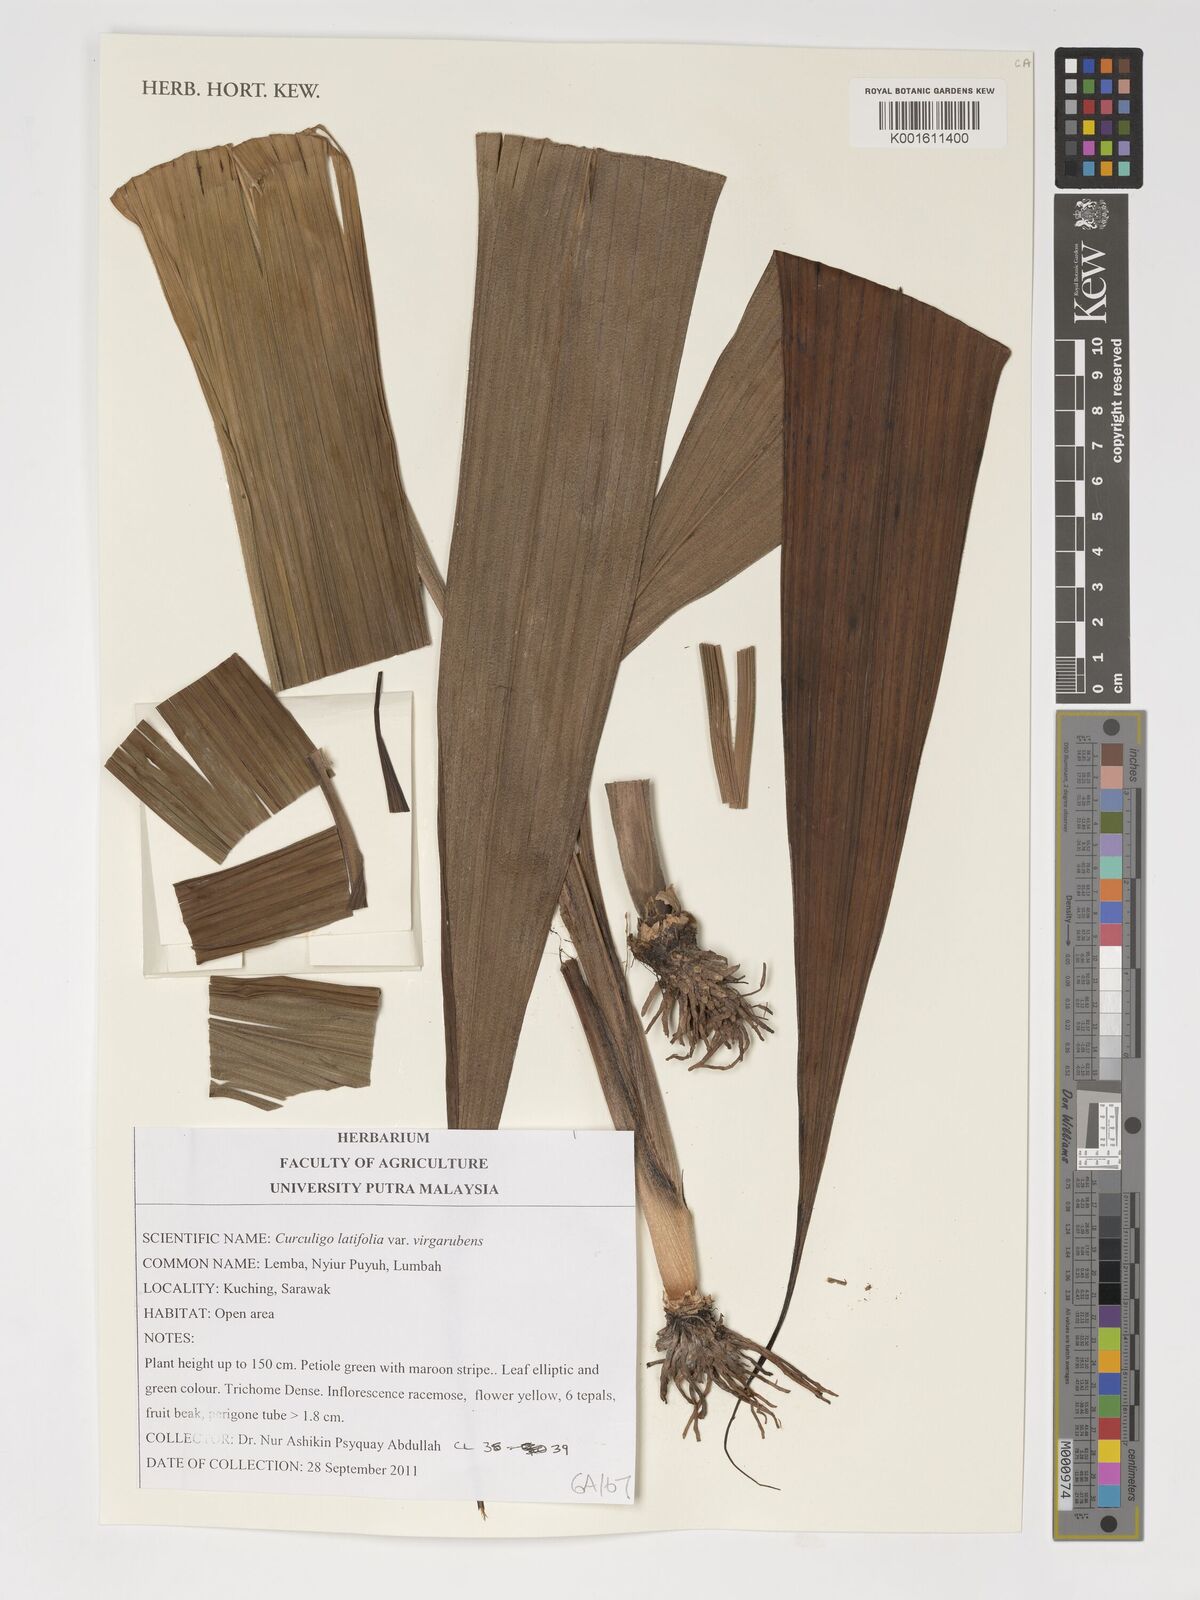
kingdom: Plantae
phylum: Tracheophyta
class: Liliopsida
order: Asparagales
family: Hypoxidaceae
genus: Curculigo
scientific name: Curculigo latifolia
